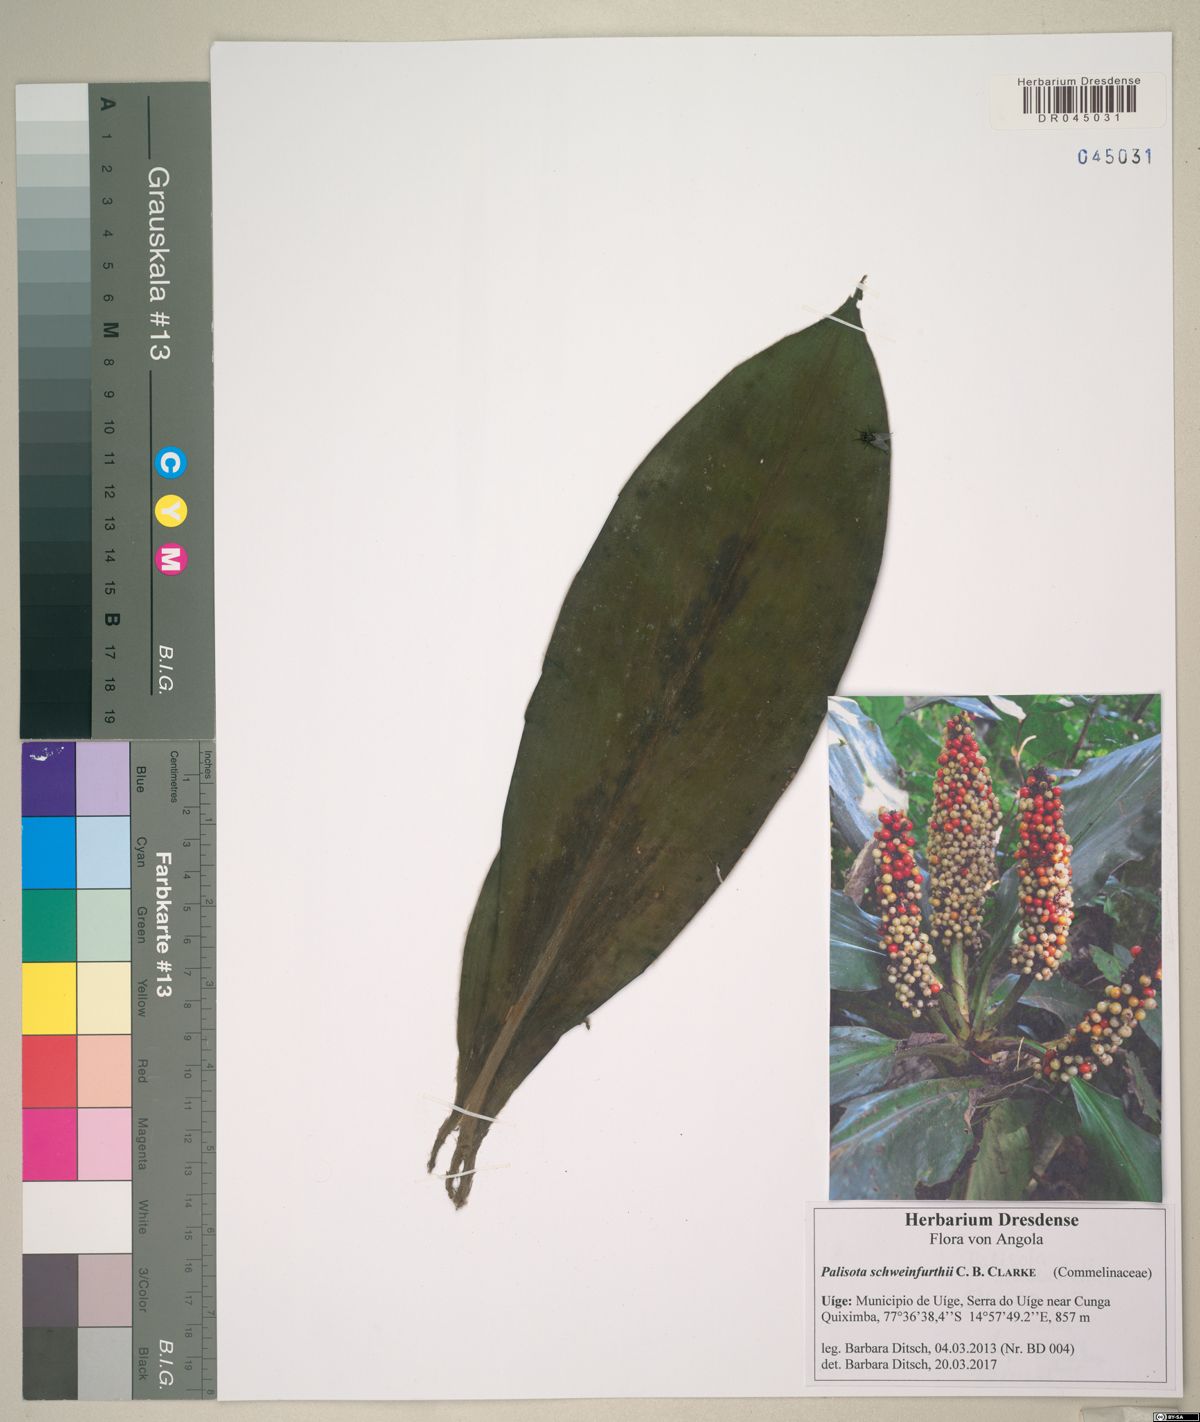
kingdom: Plantae
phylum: Tracheophyta
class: Liliopsida
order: Commelinales
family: Commelinaceae
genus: Palisota
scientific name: Palisota schweinfurthii
